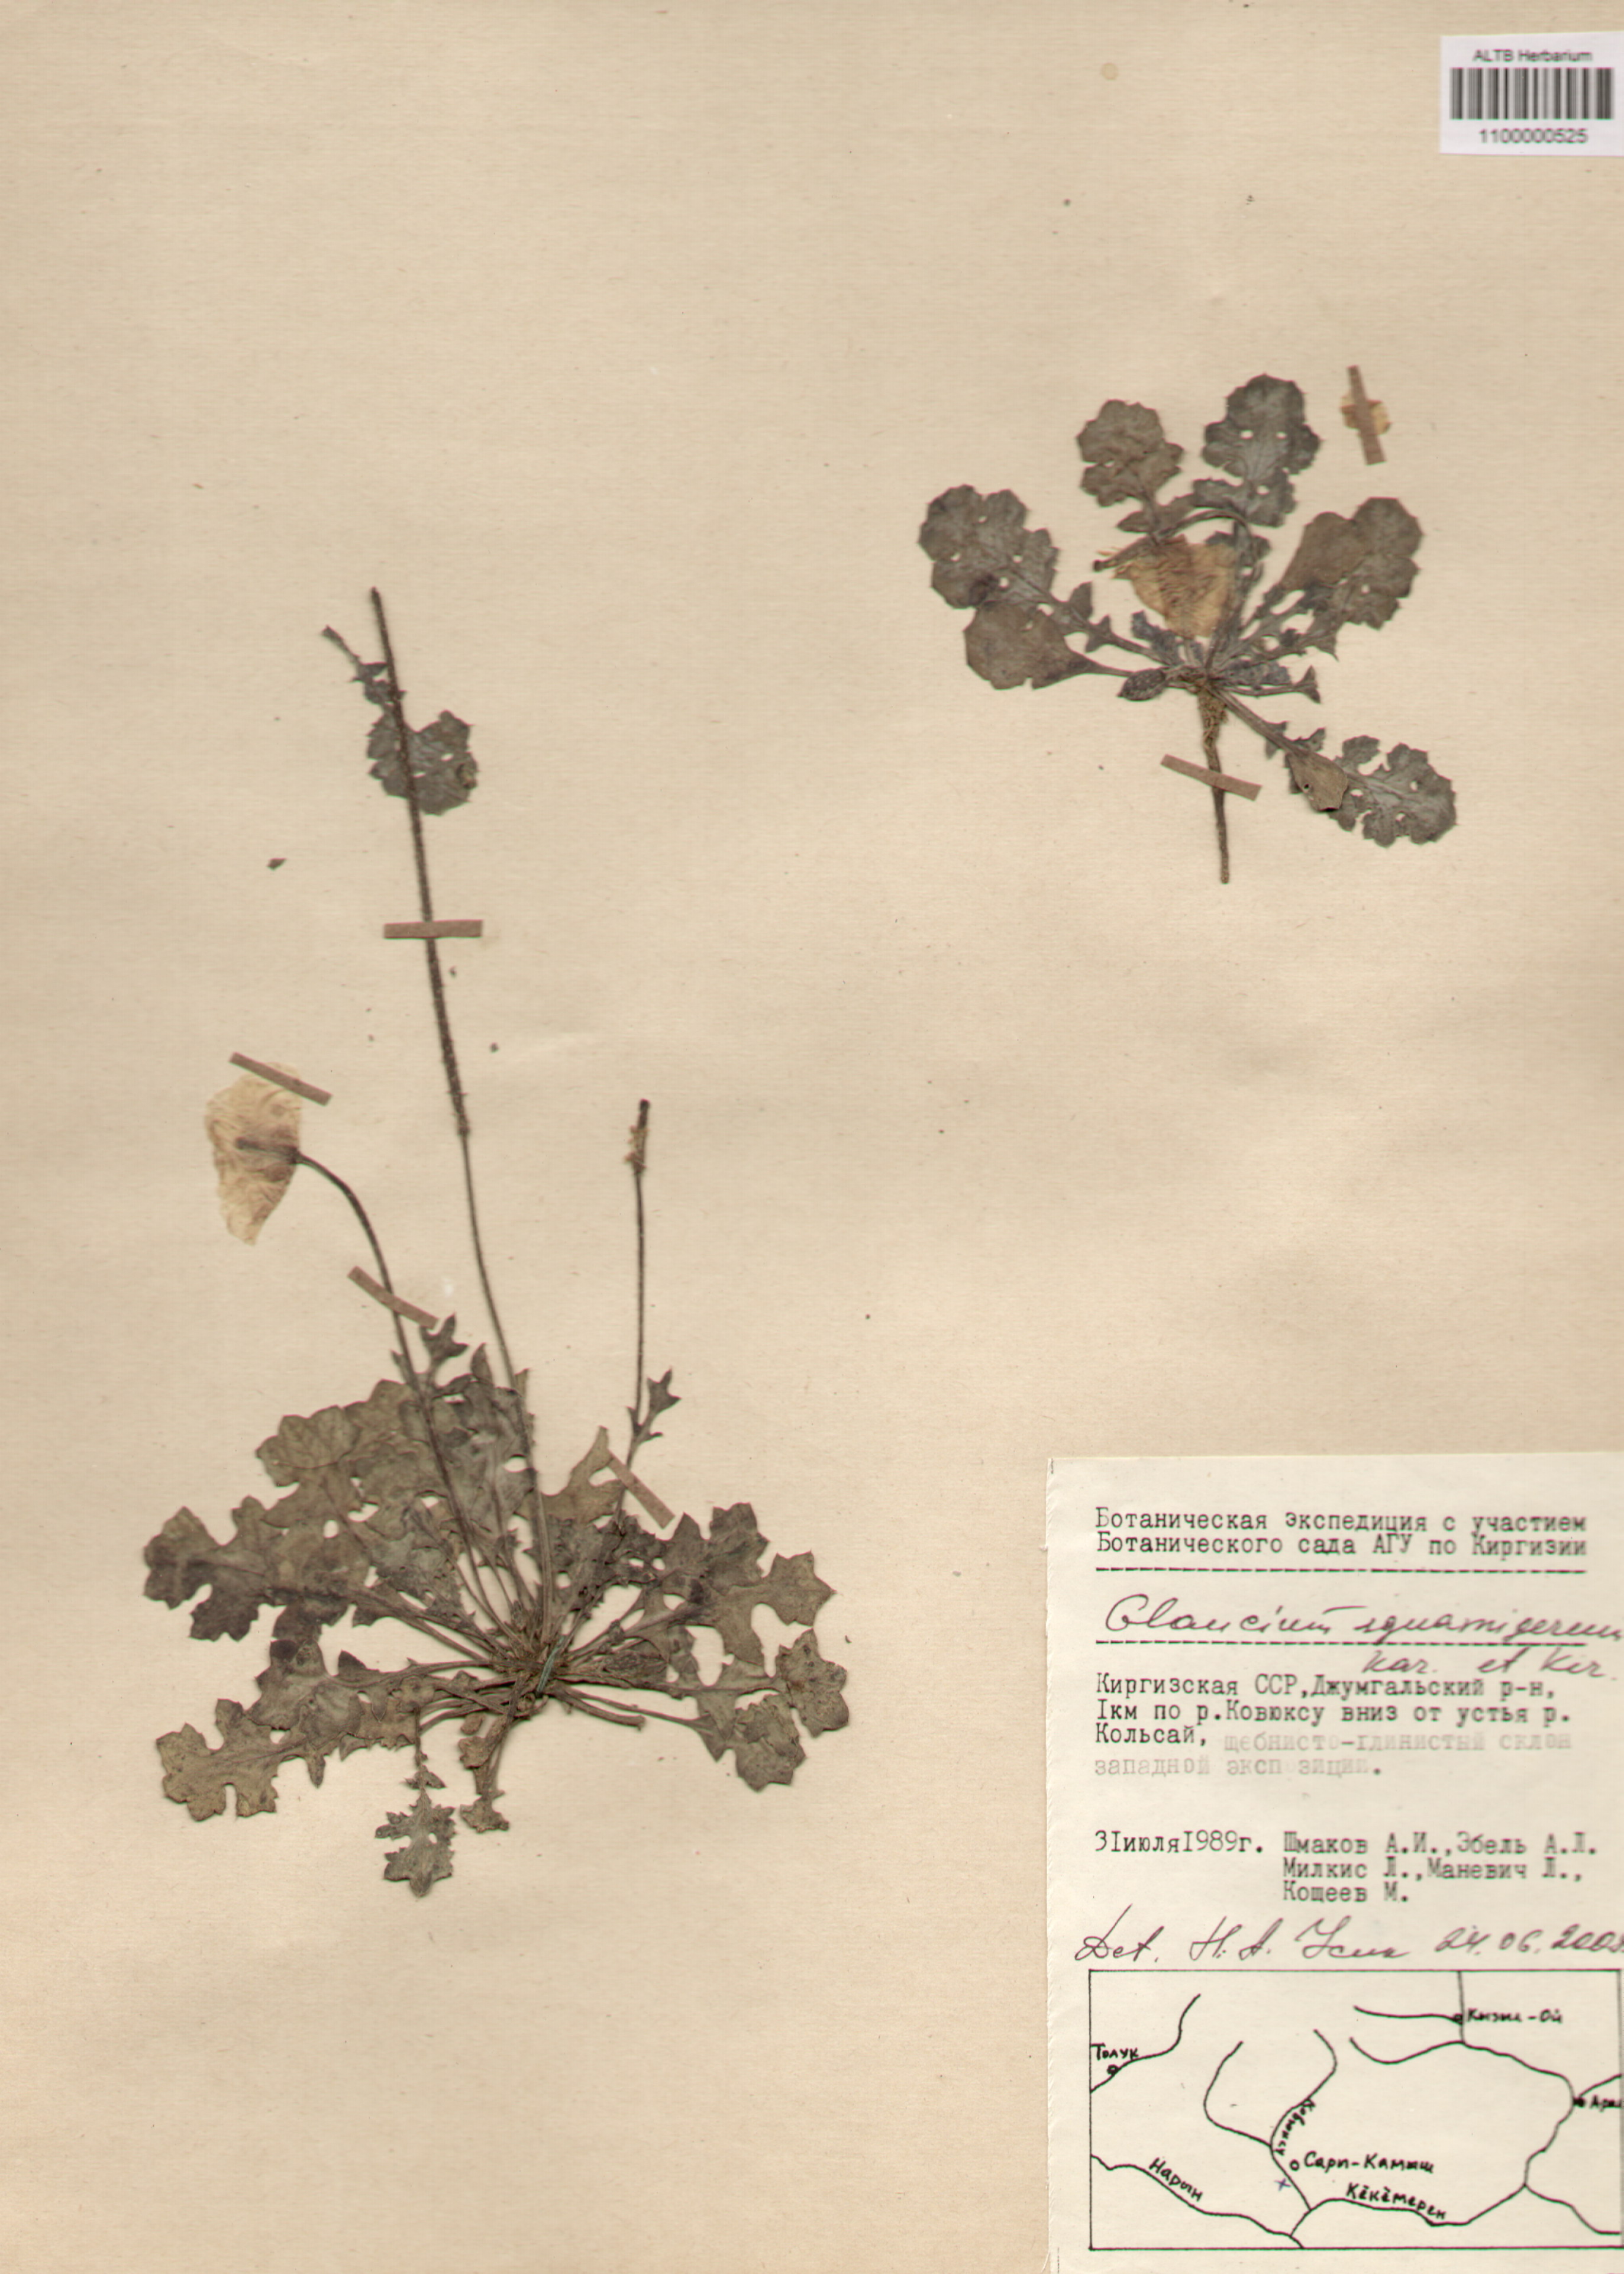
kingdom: Plantae
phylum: Tracheophyta
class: Magnoliopsida
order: Ranunculales
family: Papaveraceae
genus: Glaucium
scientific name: Glaucium squamigerum
